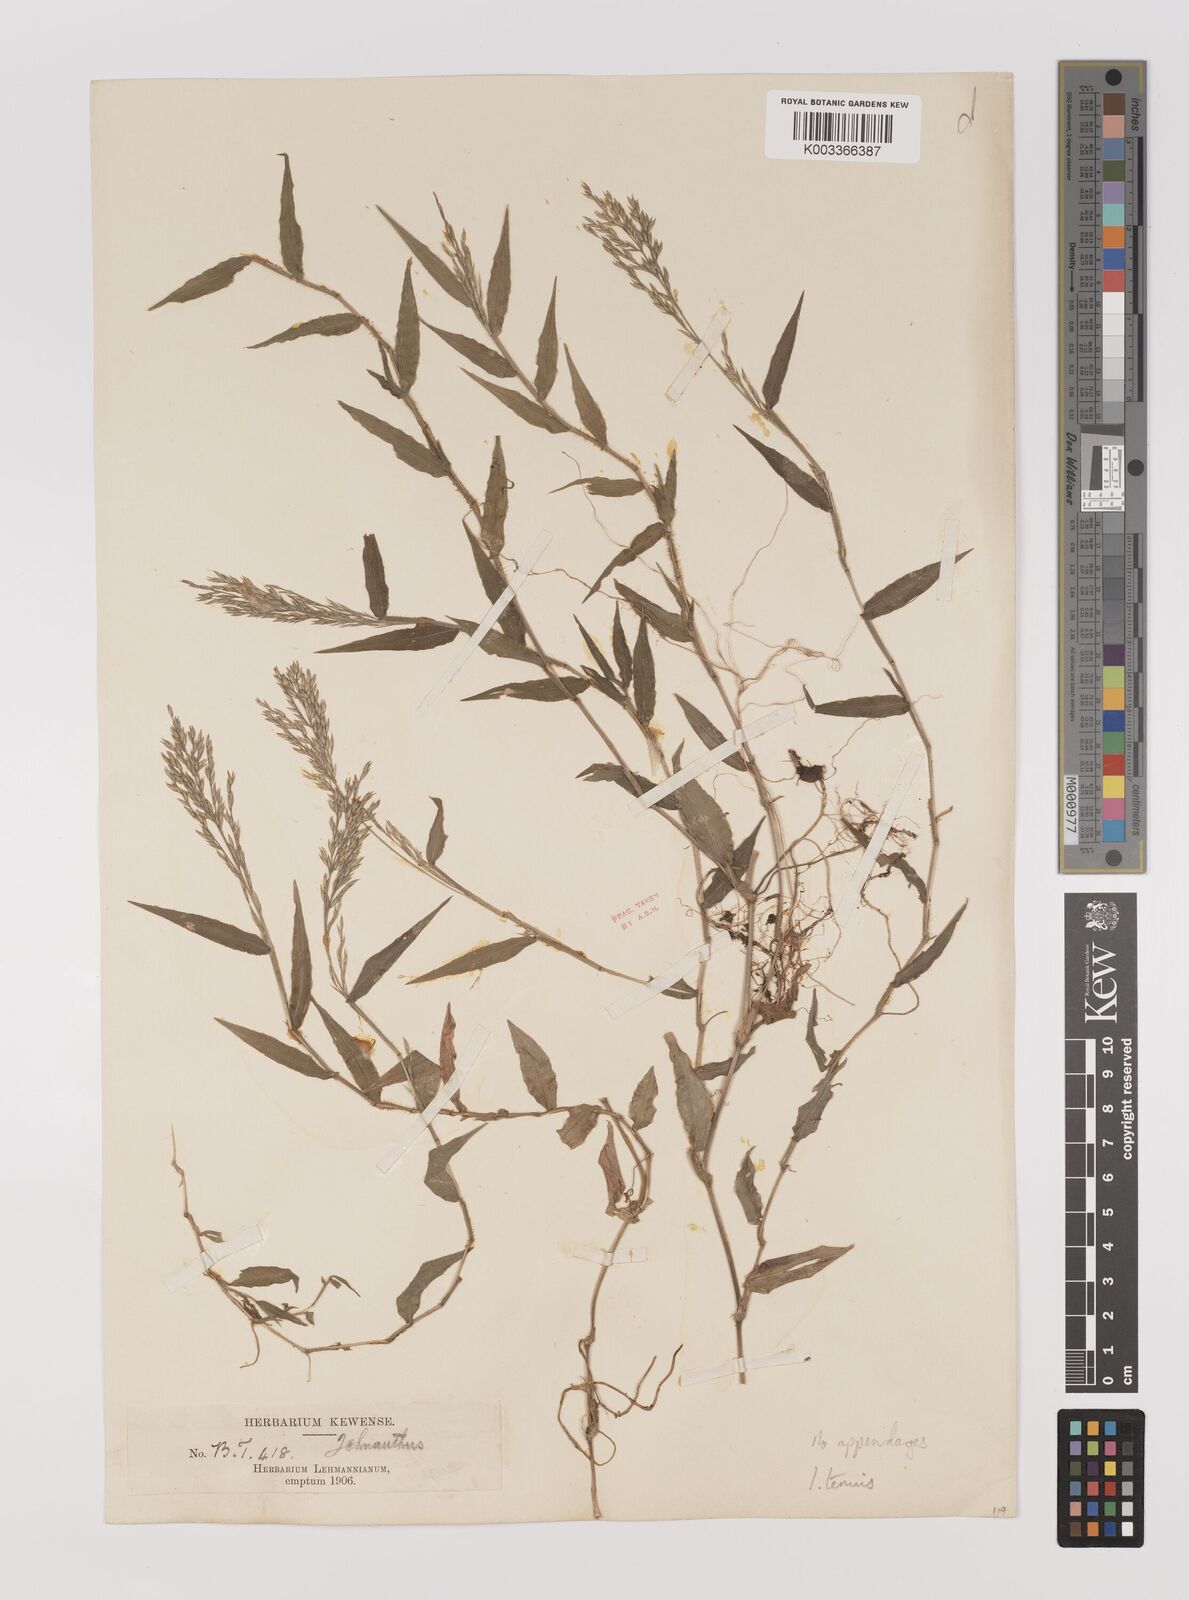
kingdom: Plantae
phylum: Tracheophyta
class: Liliopsida
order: Poales
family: Poaceae
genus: Ichnanthus
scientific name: Ichnanthus tenuis
